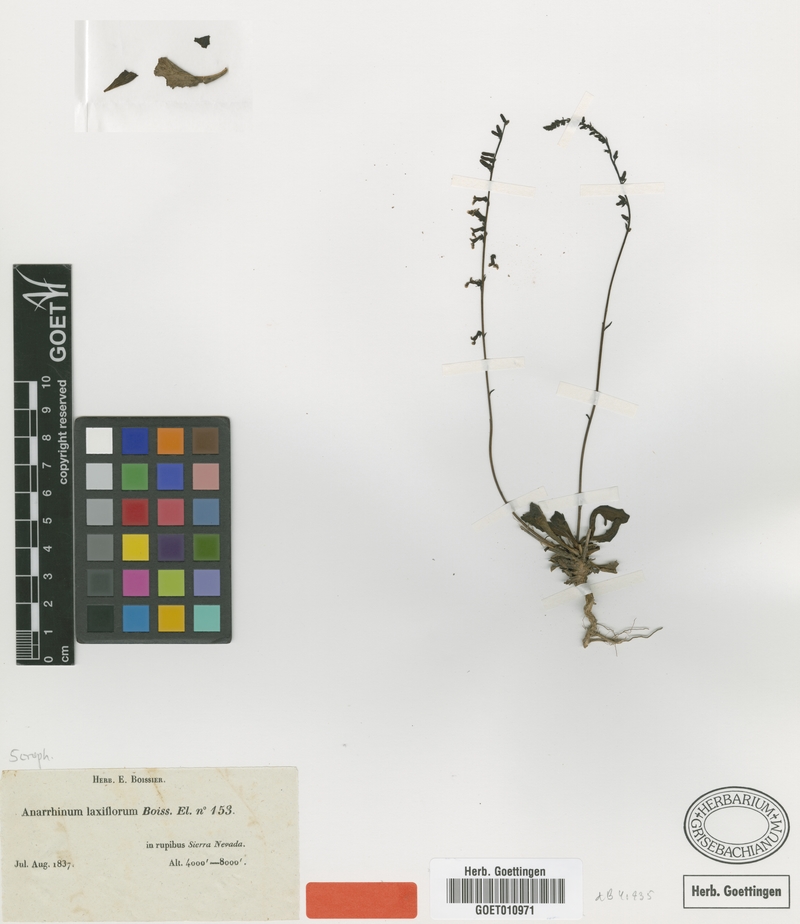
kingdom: Plantae
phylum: Tracheophyta
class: Magnoliopsida
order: Lamiales
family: Plantaginaceae
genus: Anarrhinum
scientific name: Anarrhinum laxiflorum
